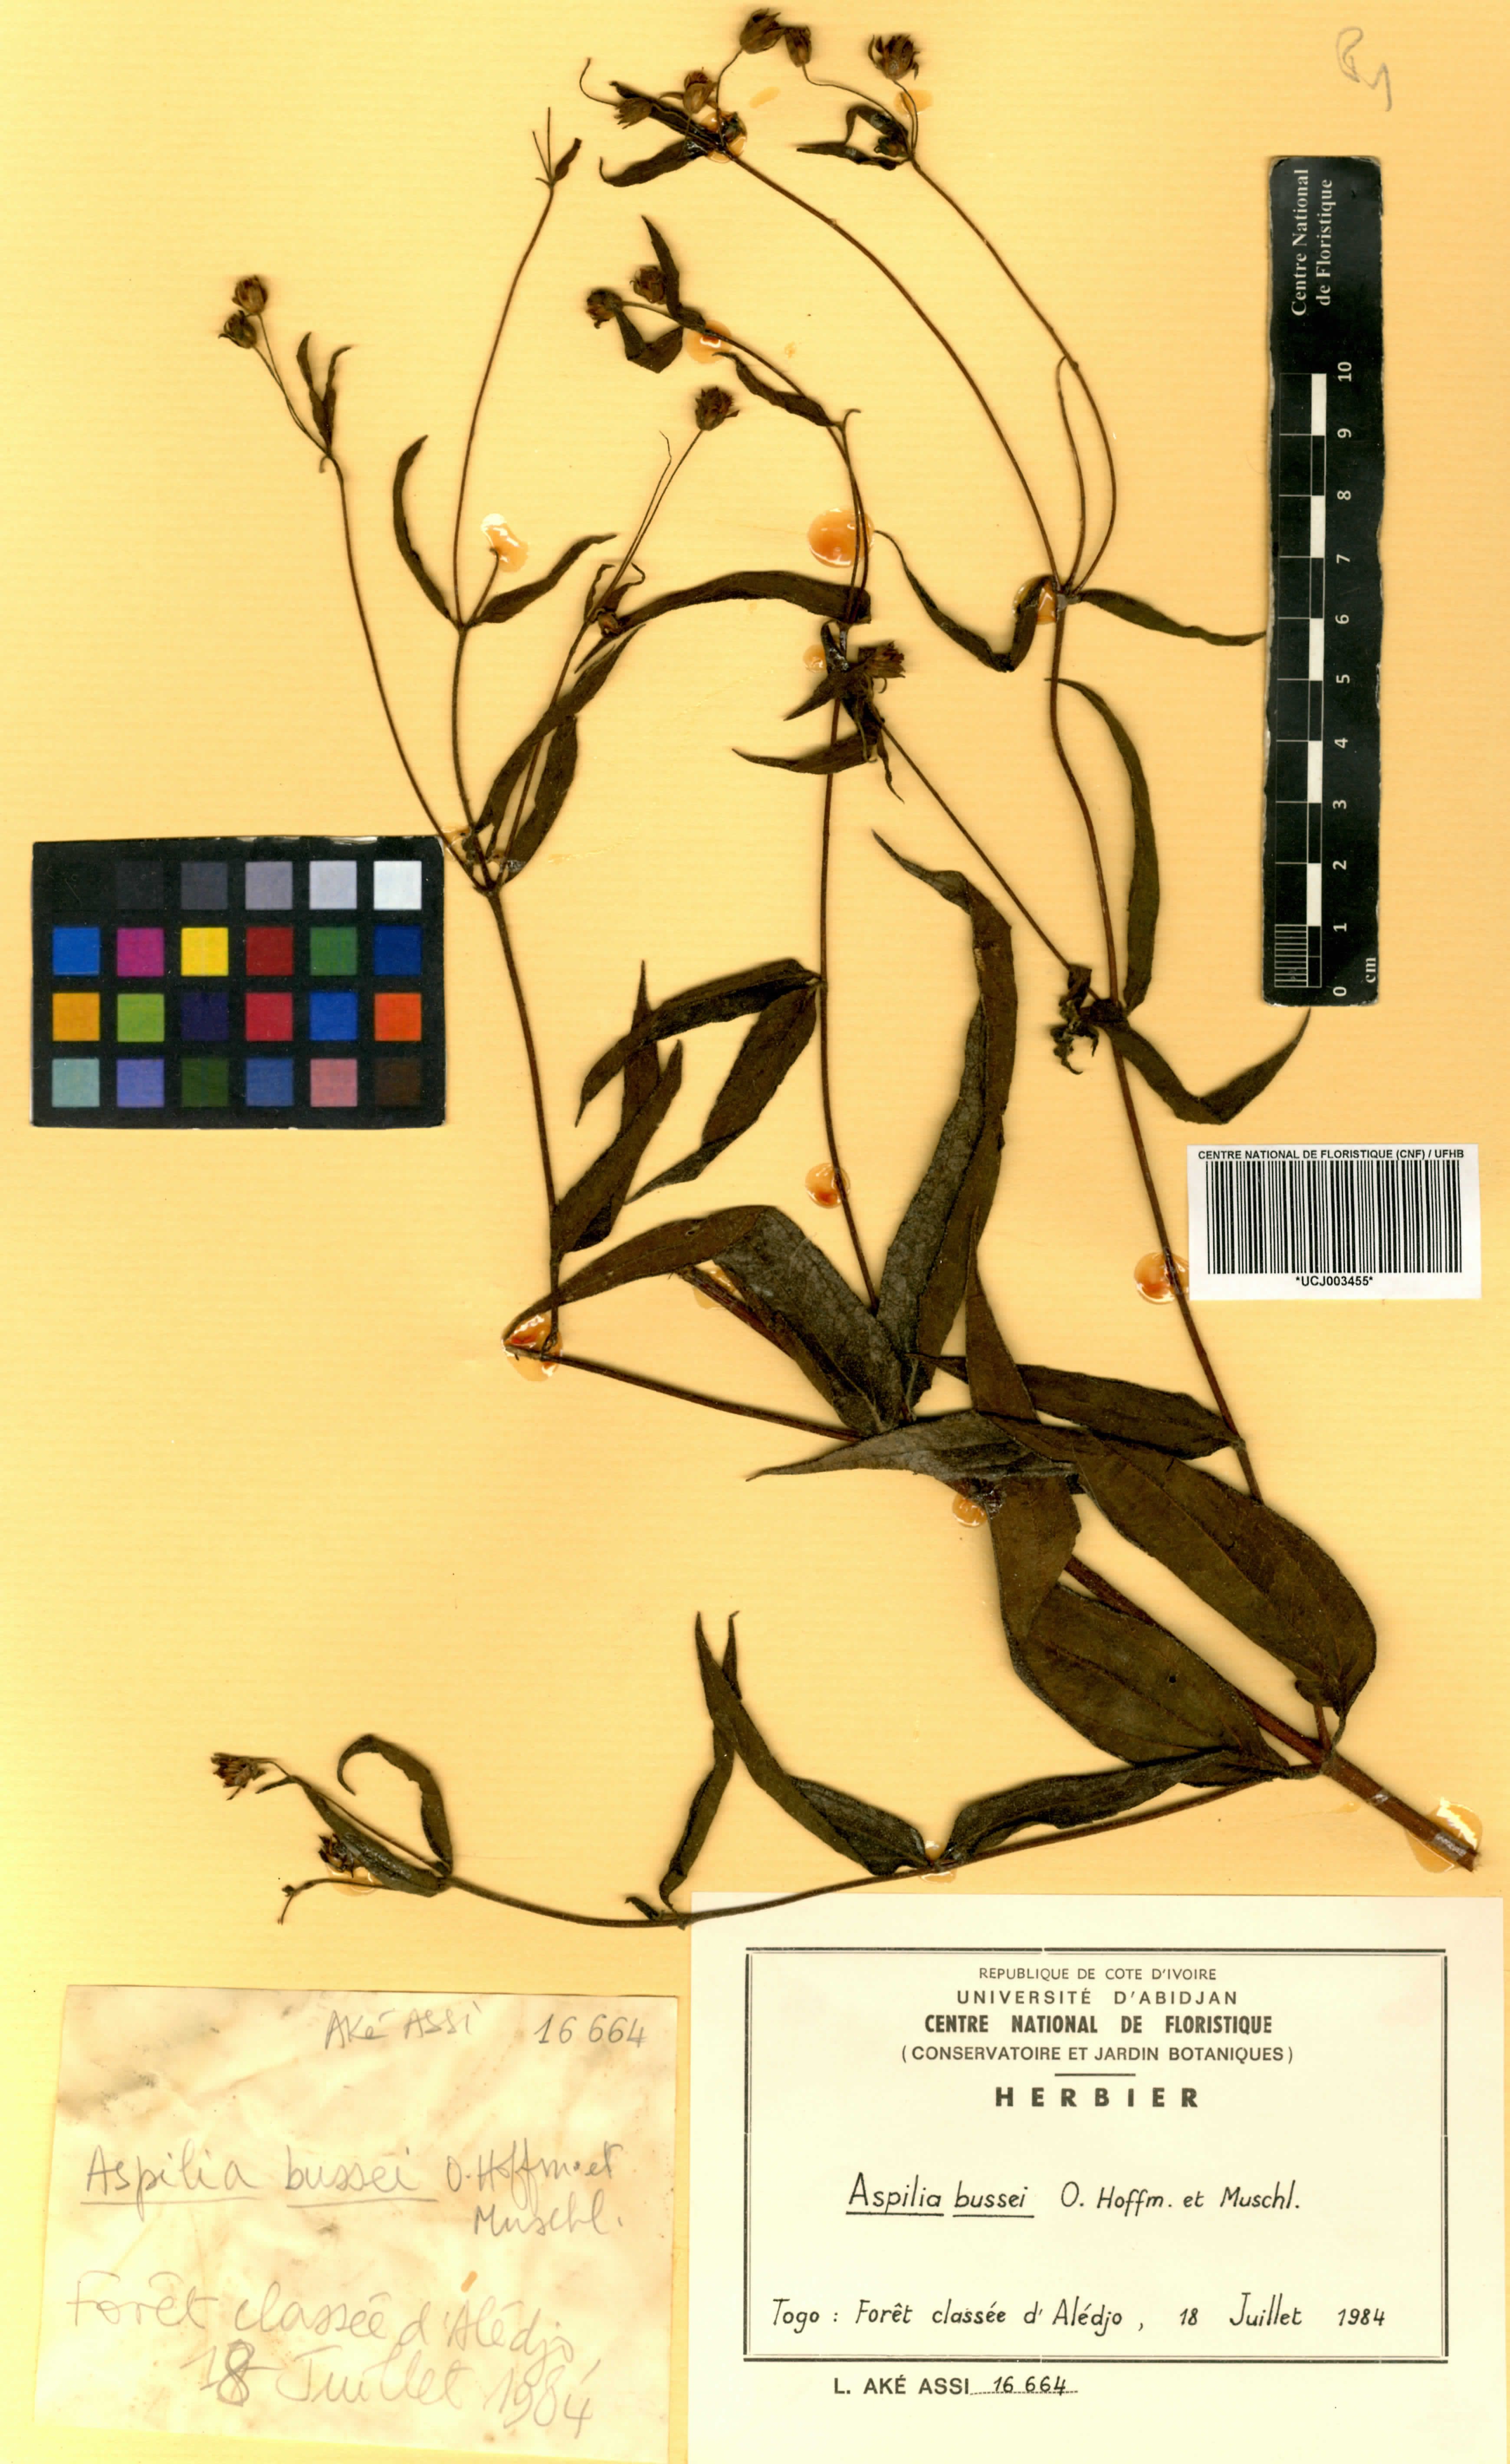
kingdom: Plantae
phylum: Tracheophyta
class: Magnoliopsida
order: Asterales
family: Asteraceae
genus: Aspilia
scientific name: Aspilia bussei
